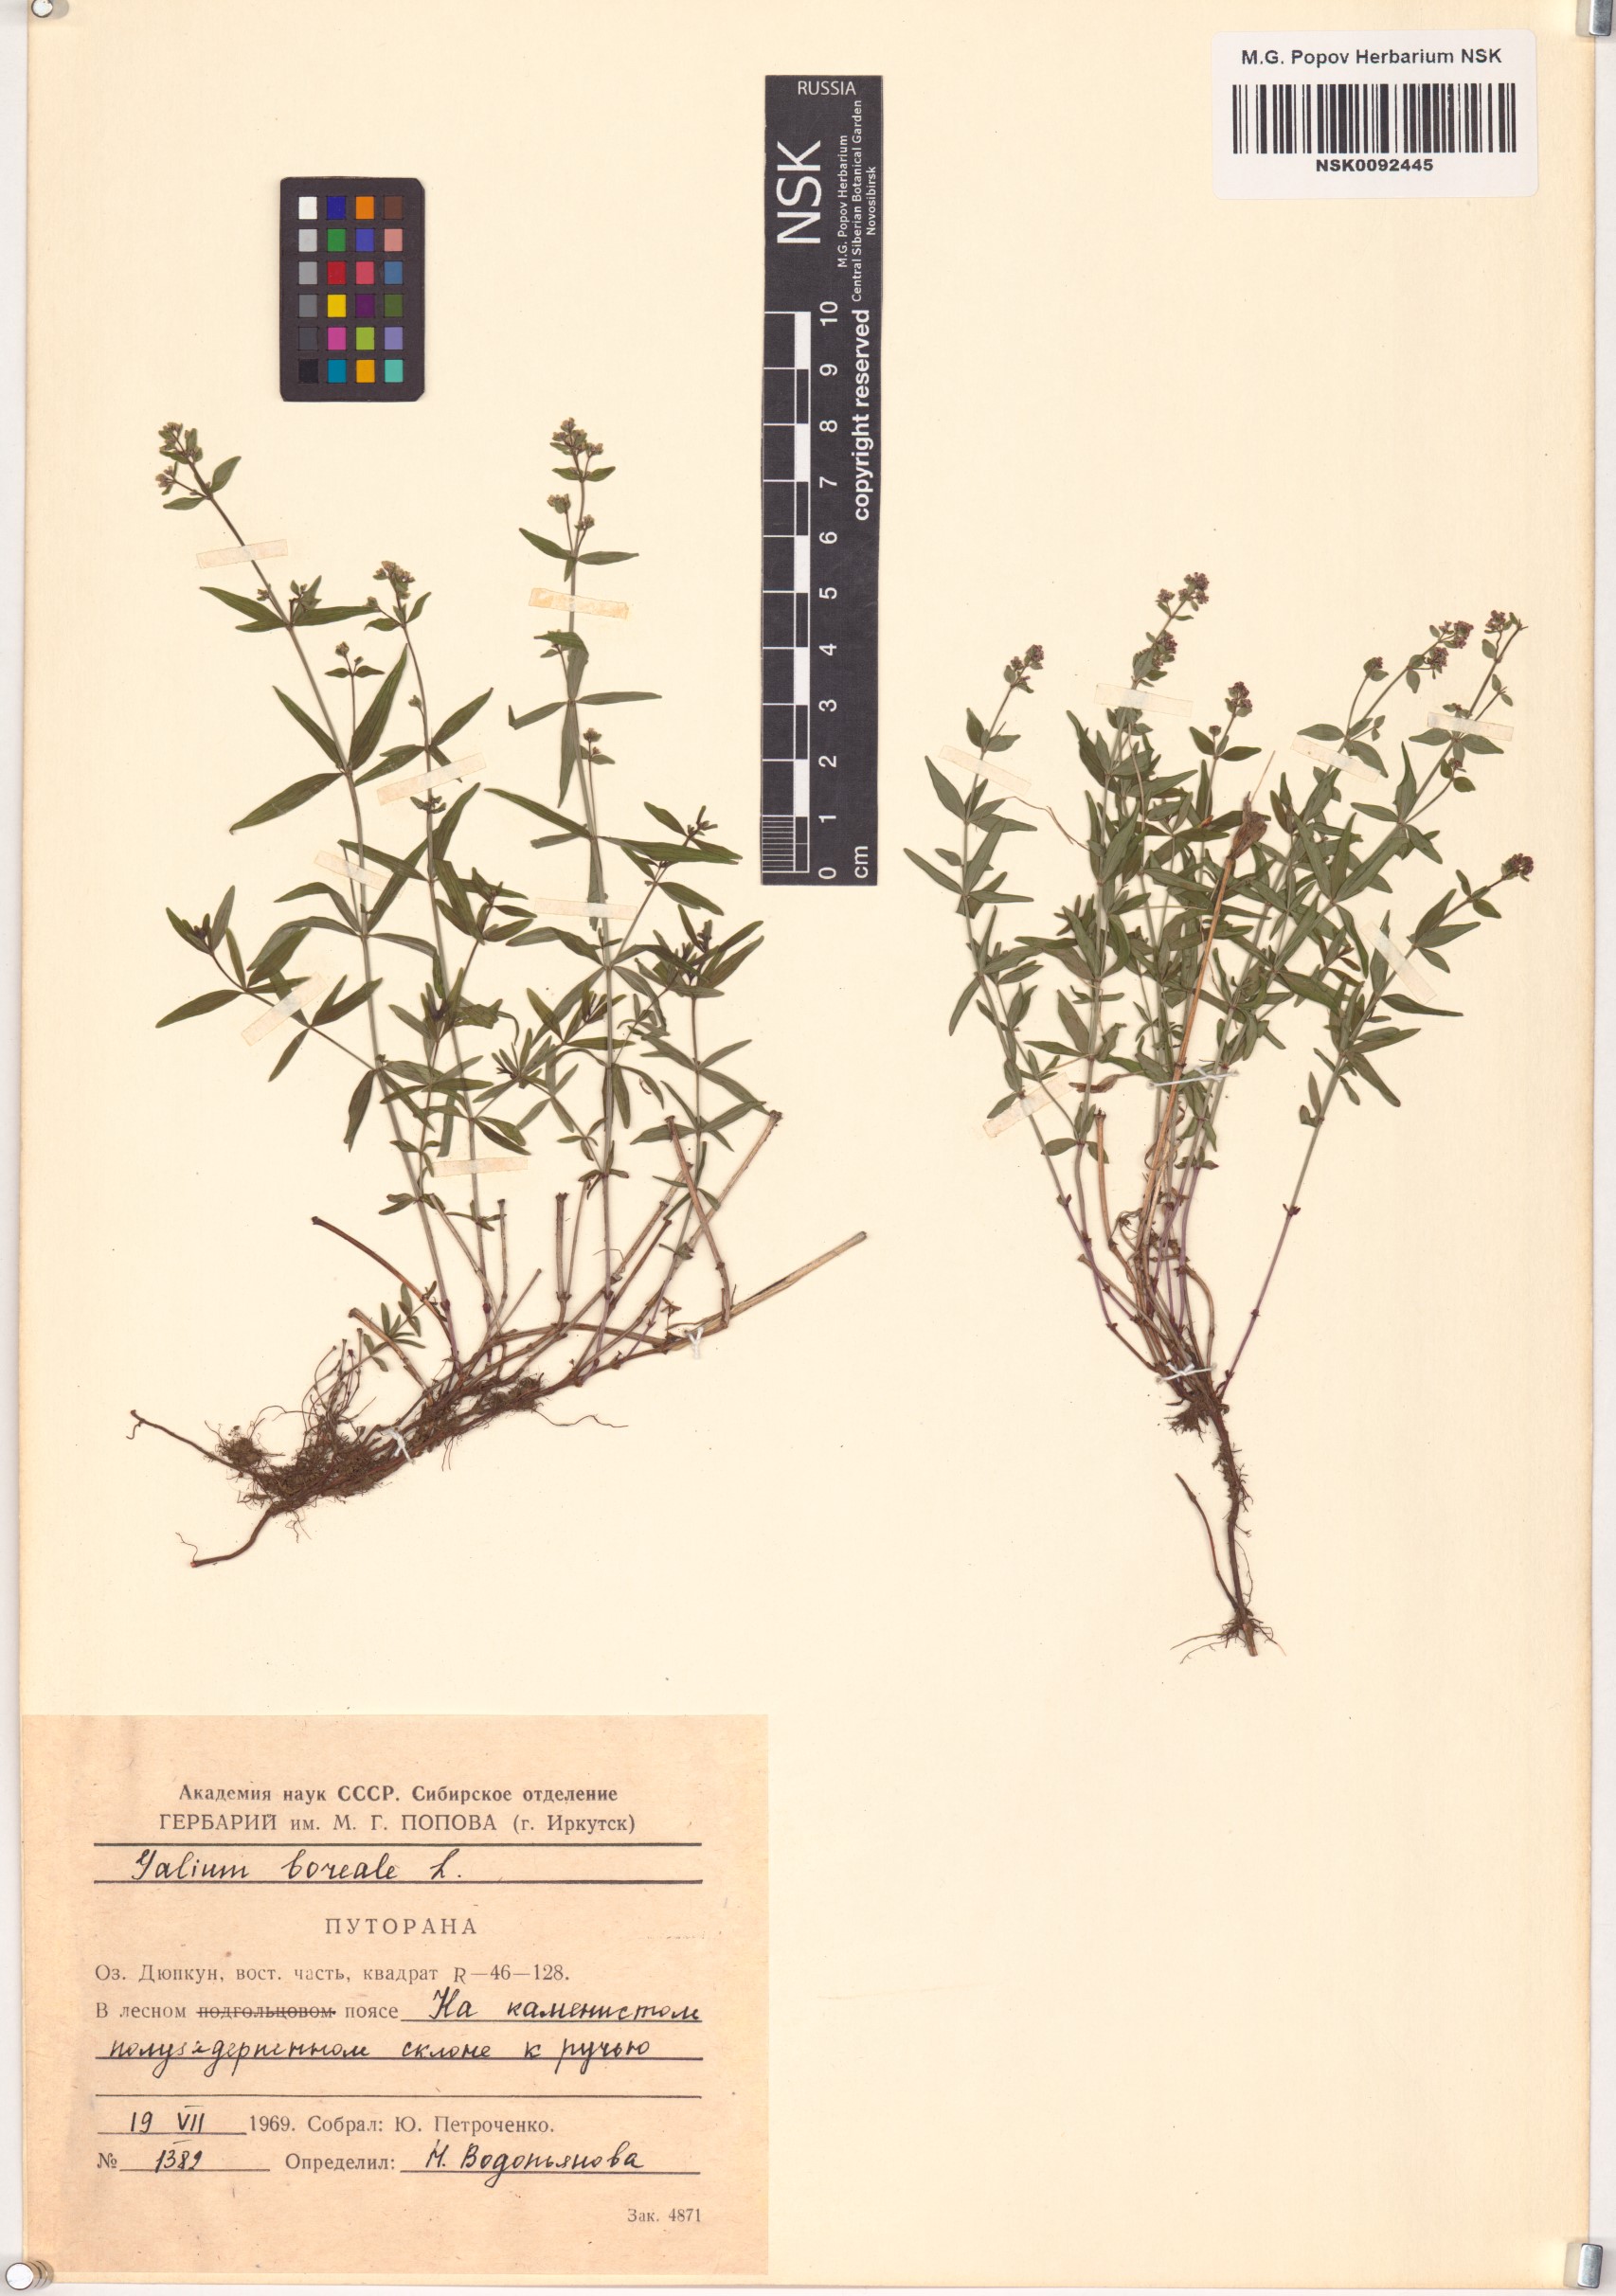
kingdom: Plantae
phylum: Tracheophyta
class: Magnoliopsida
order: Gentianales
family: Rubiaceae
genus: Galium
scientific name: Galium boreale
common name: Northern bedstraw
